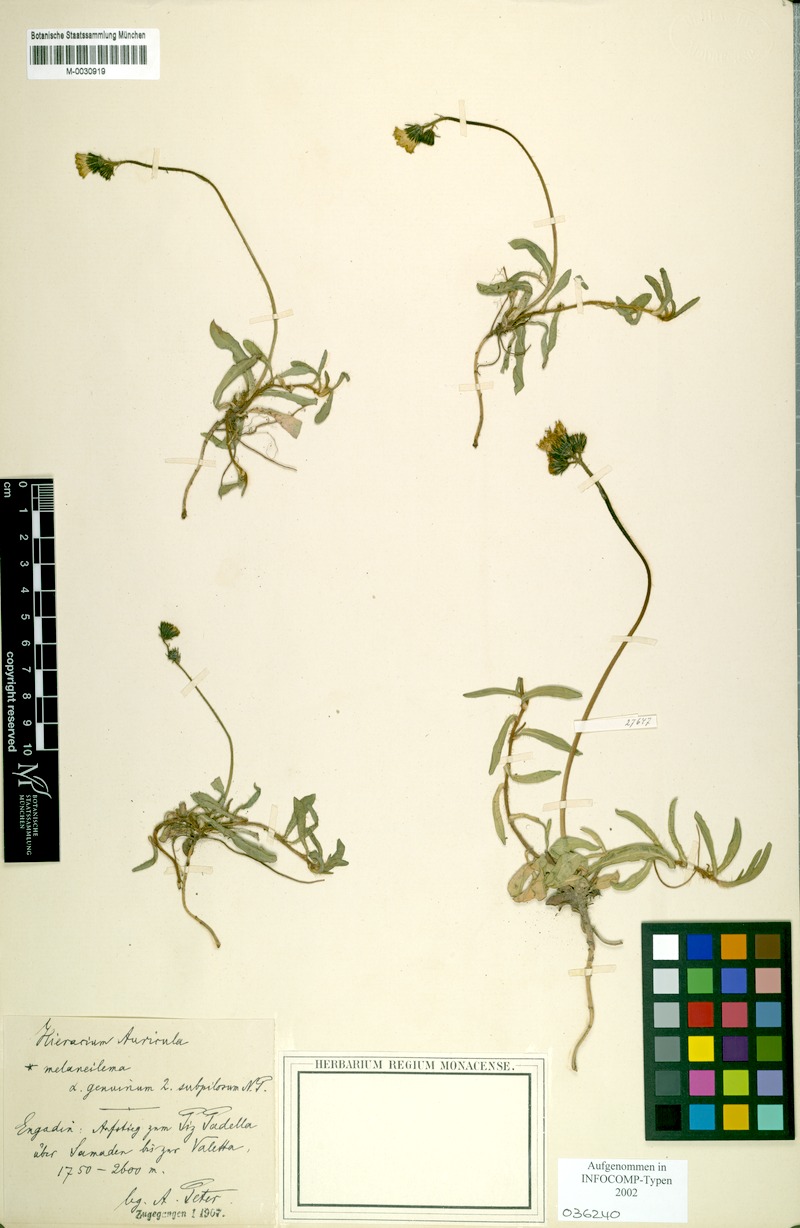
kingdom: Plantae
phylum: Tracheophyta
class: Magnoliopsida
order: Asterales
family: Asteraceae
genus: Pilosella
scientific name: Pilosella lactucella
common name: Glaucous fox-and-cubs
